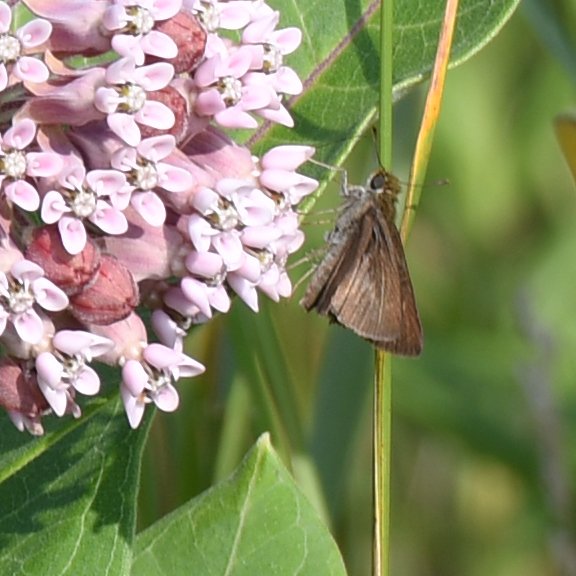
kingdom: Animalia
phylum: Arthropoda
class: Insecta
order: Lepidoptera
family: Hesperiidae
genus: Euphyes
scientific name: Euphyes vestris
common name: Dun Skipper
